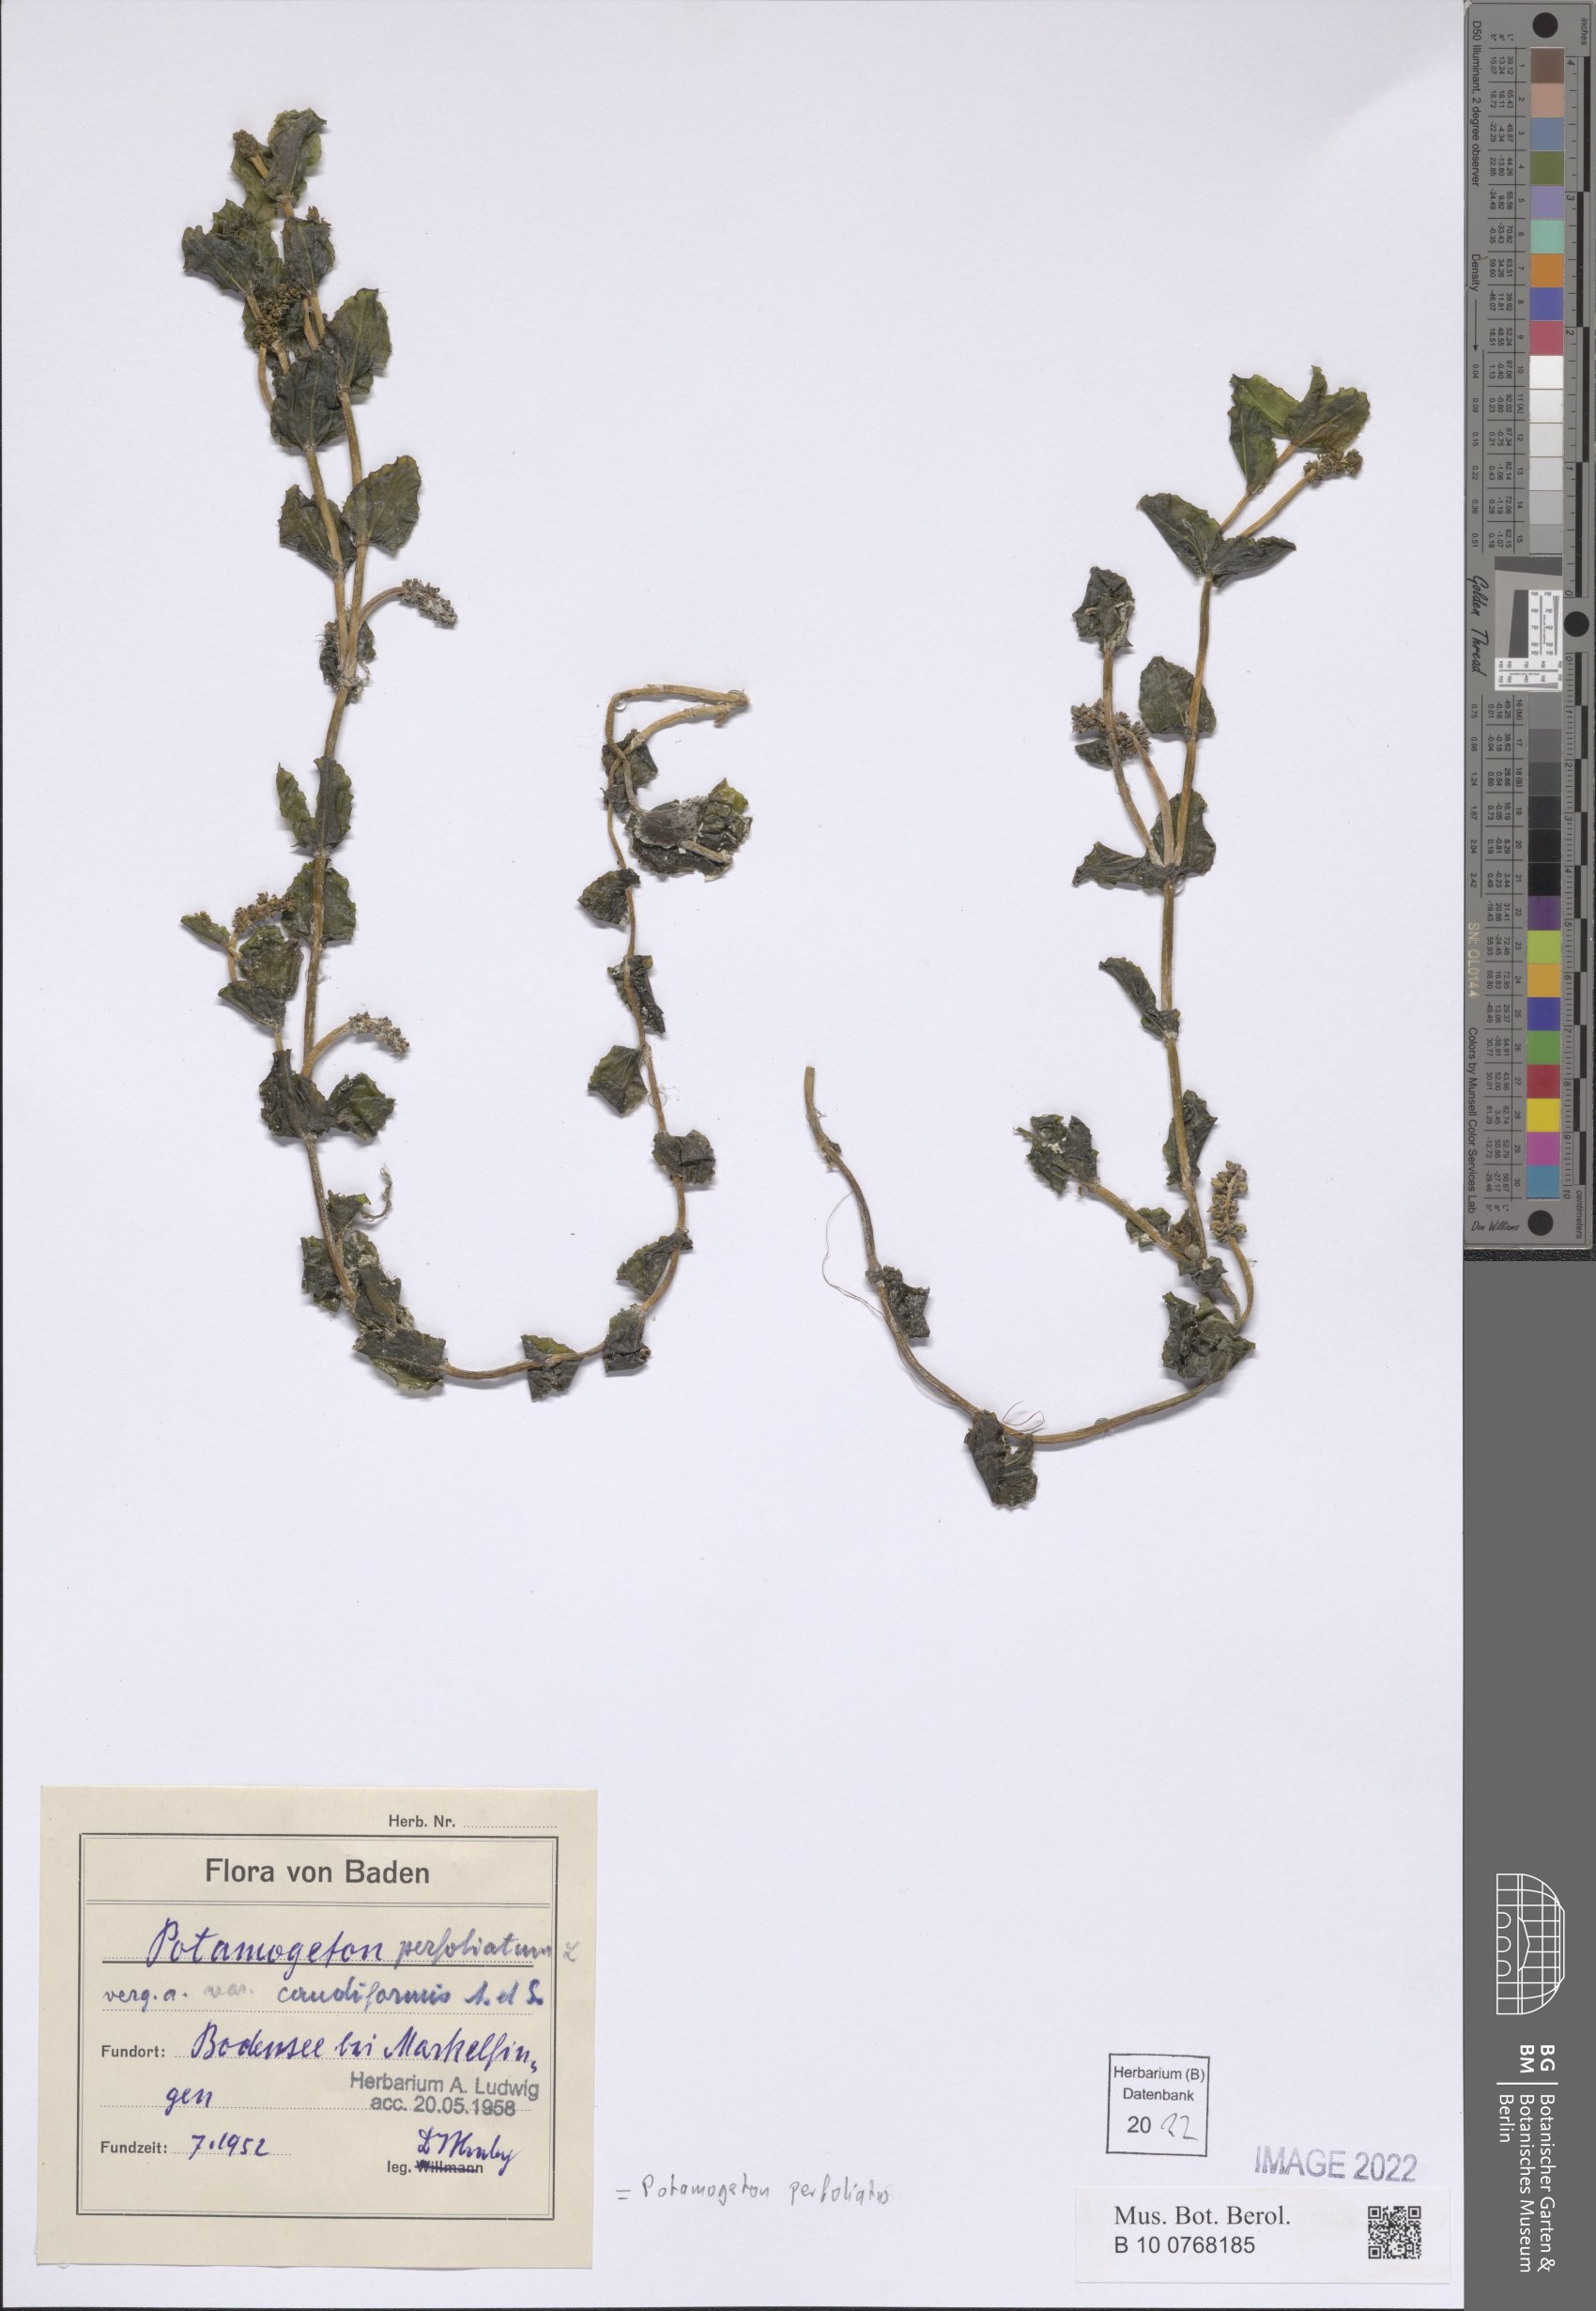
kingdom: Plantae
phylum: Tracheophyta
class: Liliopsida
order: Alismatales
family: Potamogetonaceae
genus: Potamogeton
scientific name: Potamogeton perfoliatus
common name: Perfoliate pondweed
